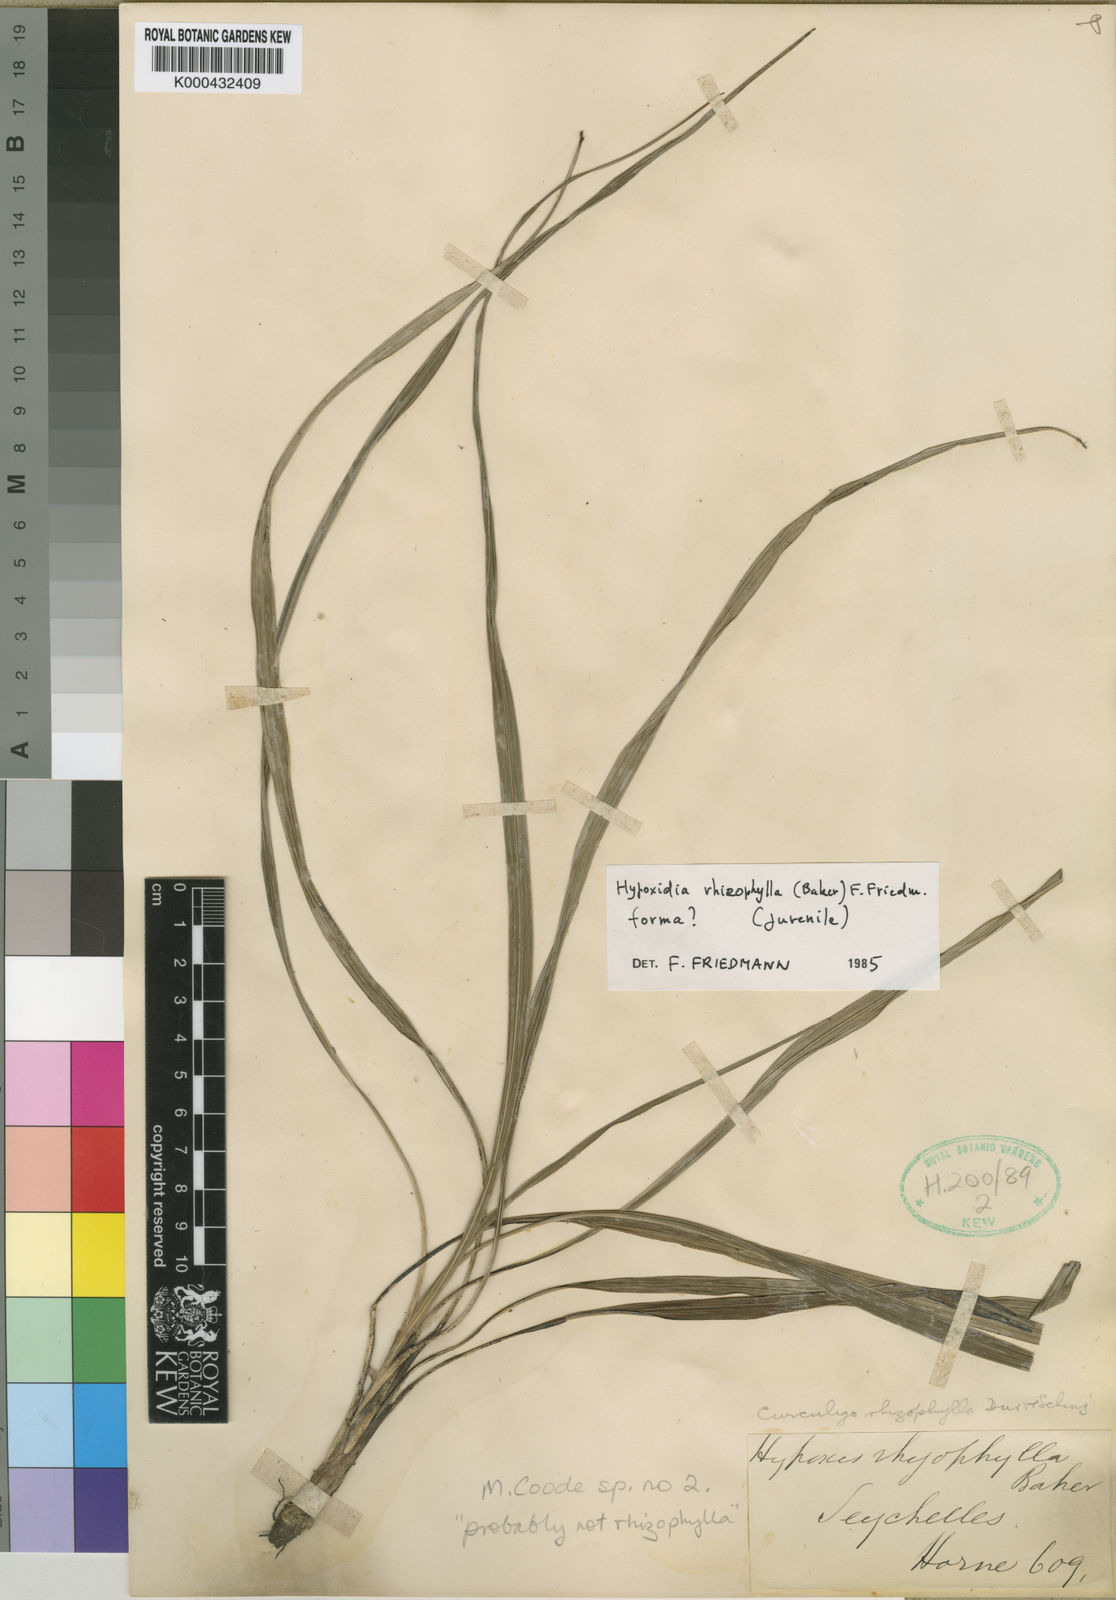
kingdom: Plantae
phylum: Tracheophyta
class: Liliopsida
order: Asparagales
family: Hypoxidaceae
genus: Curculigo
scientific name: Curculigo rhizophylla
